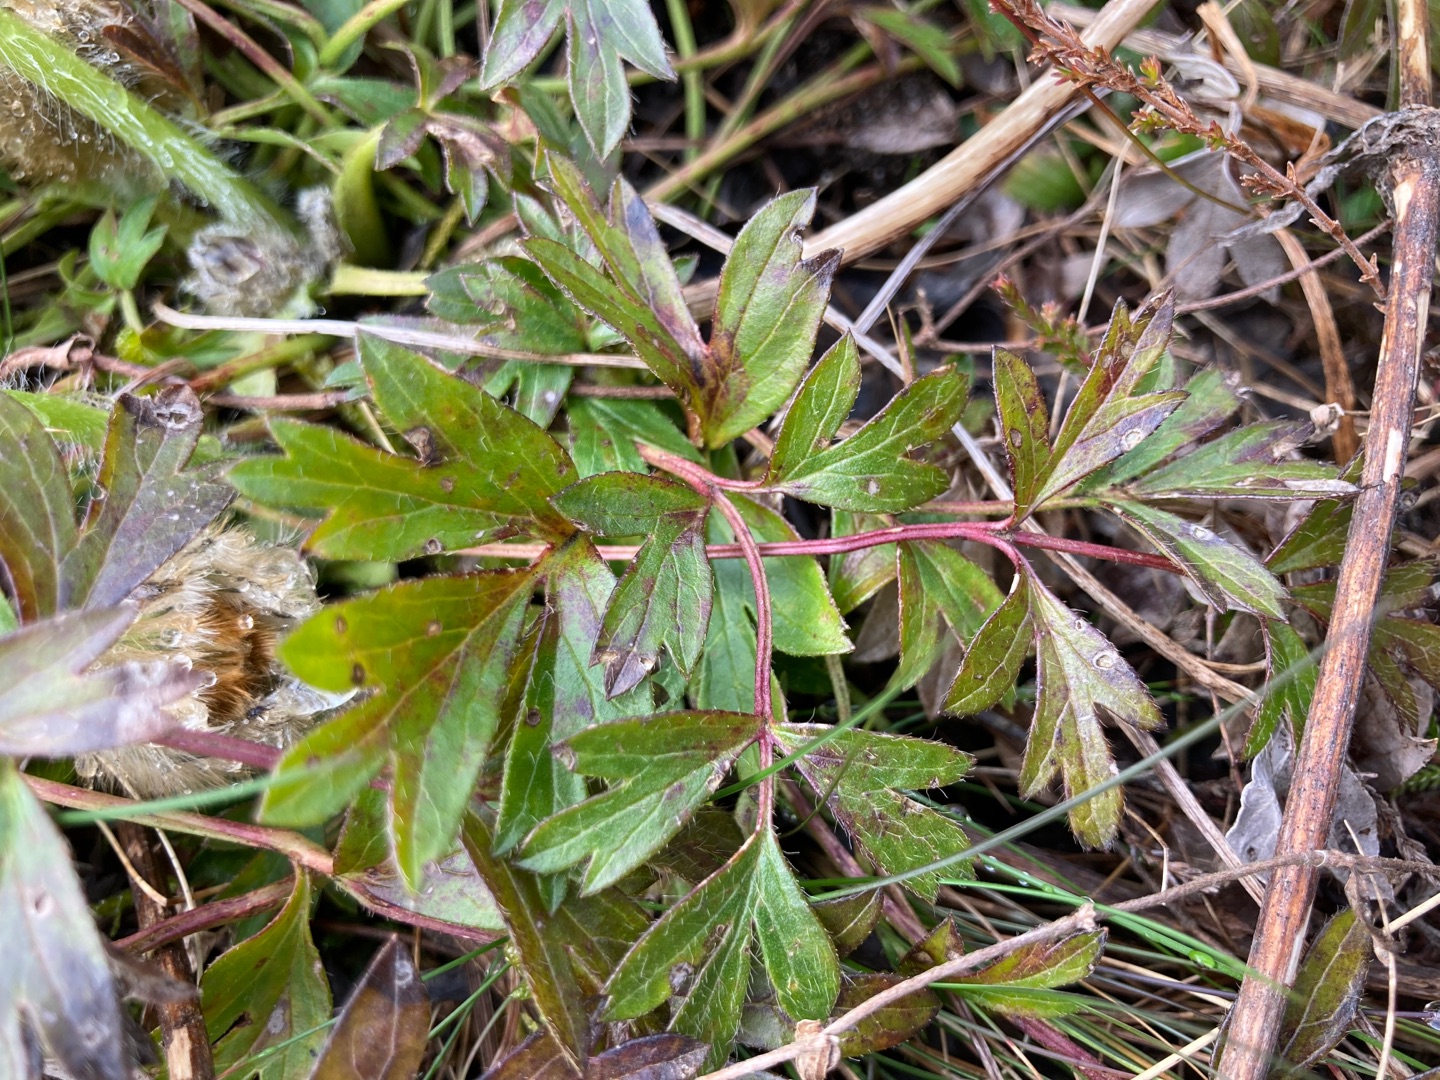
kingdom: Plantae
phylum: Tracheophyta
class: Magnoliopsida
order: Ranunculales
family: Ranunculaceae
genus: Pulsatilla
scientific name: Pulsatilla vernalis
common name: Vår-kobjælde
